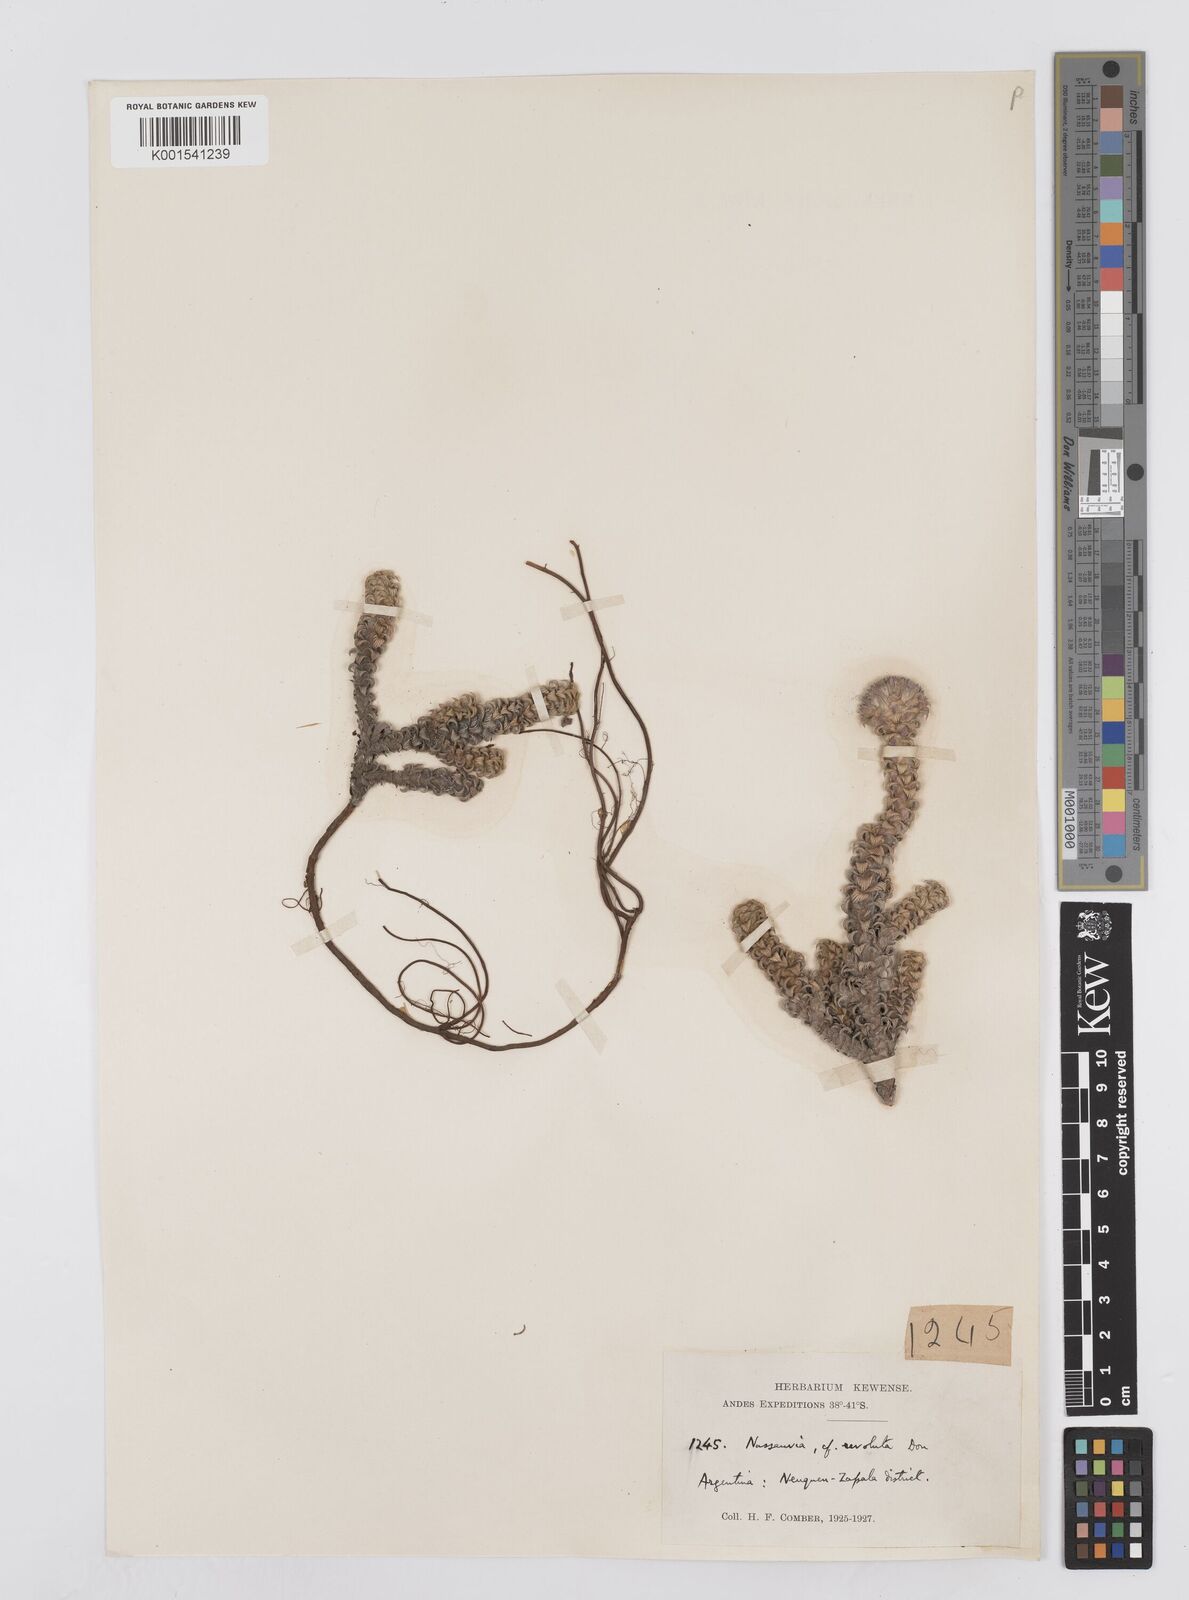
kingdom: Plantae
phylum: Tracheophyta
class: Magnoliopsida
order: Asterales
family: Asteraceae
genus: Nassauvia
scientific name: Nassauvia revoluta
